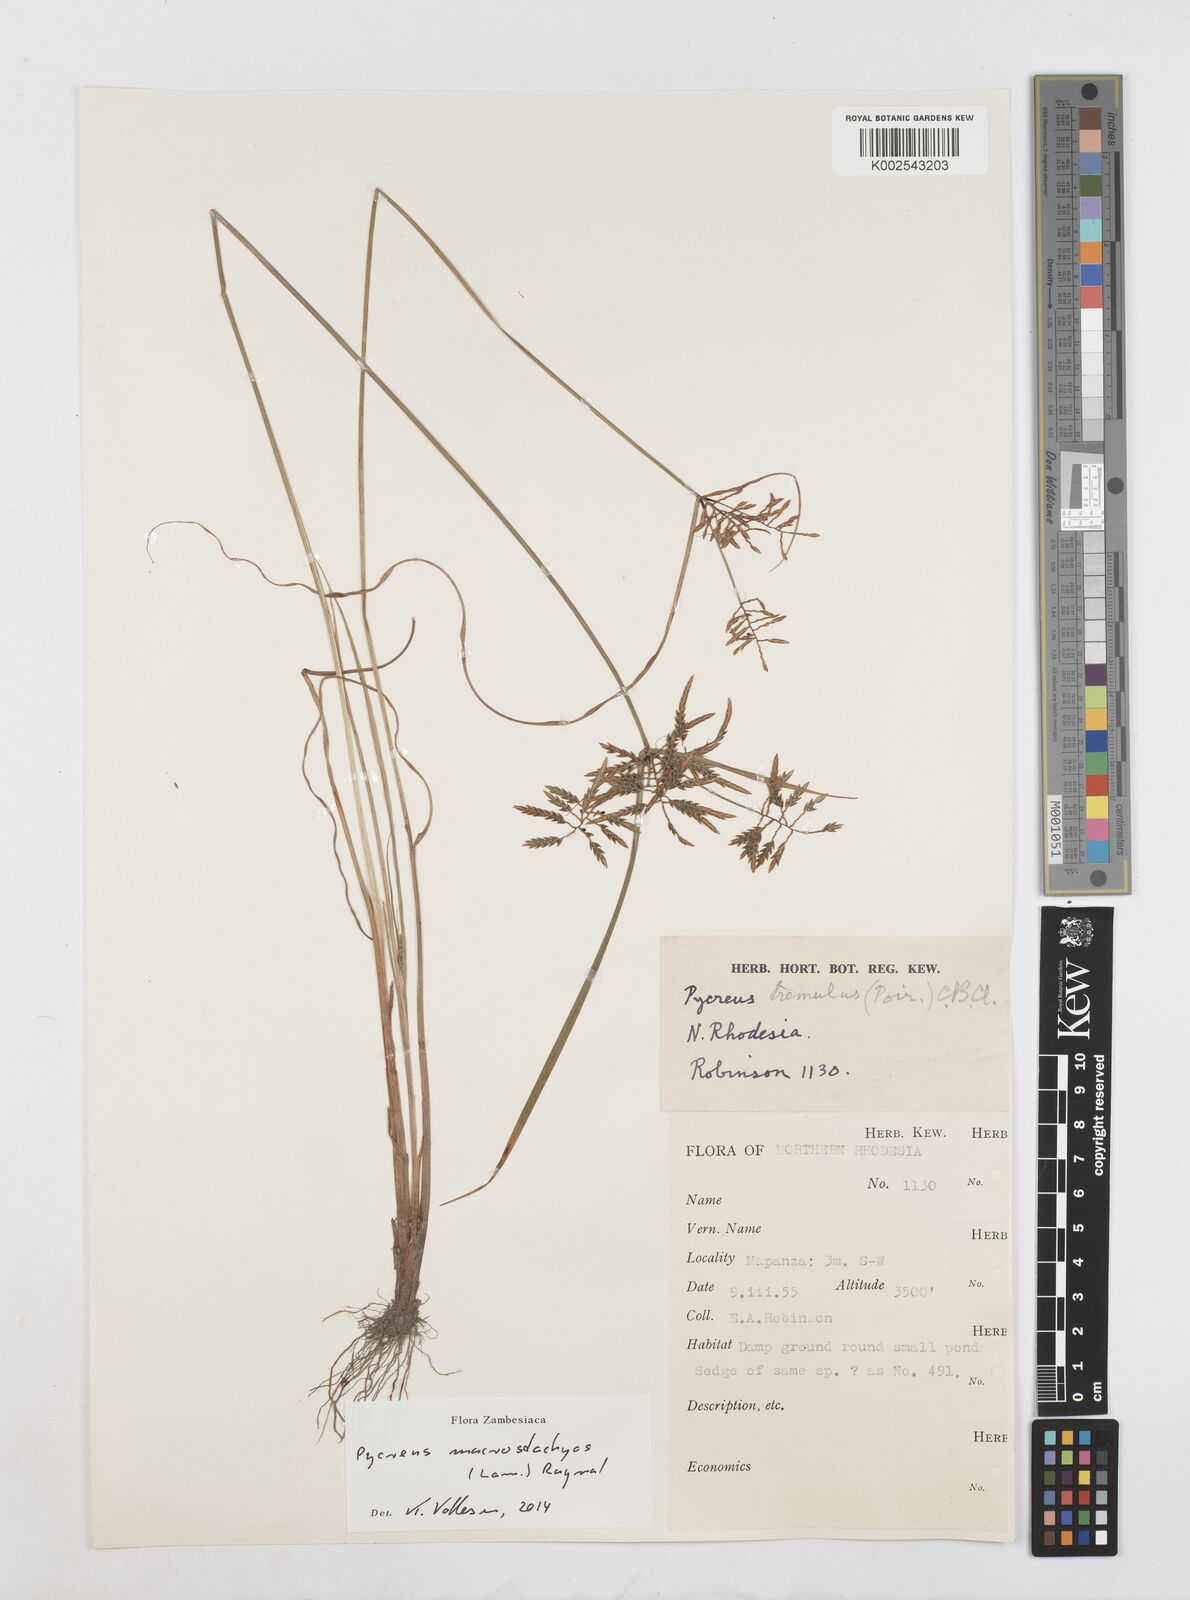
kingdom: Plantae
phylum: Tracheophyta
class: Liliopsida
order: Poales
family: Cyperaceae
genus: Cyperus
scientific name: Cyperus macrostachyos
